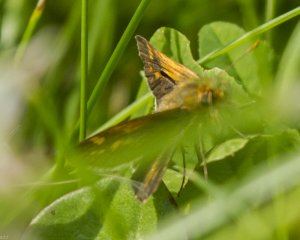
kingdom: Animalia
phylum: Arthropoda
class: Insecta
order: Lepidoptera
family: Hesperiidae
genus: Polites
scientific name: Polites themistocles
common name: Tawny-edged Skipper
